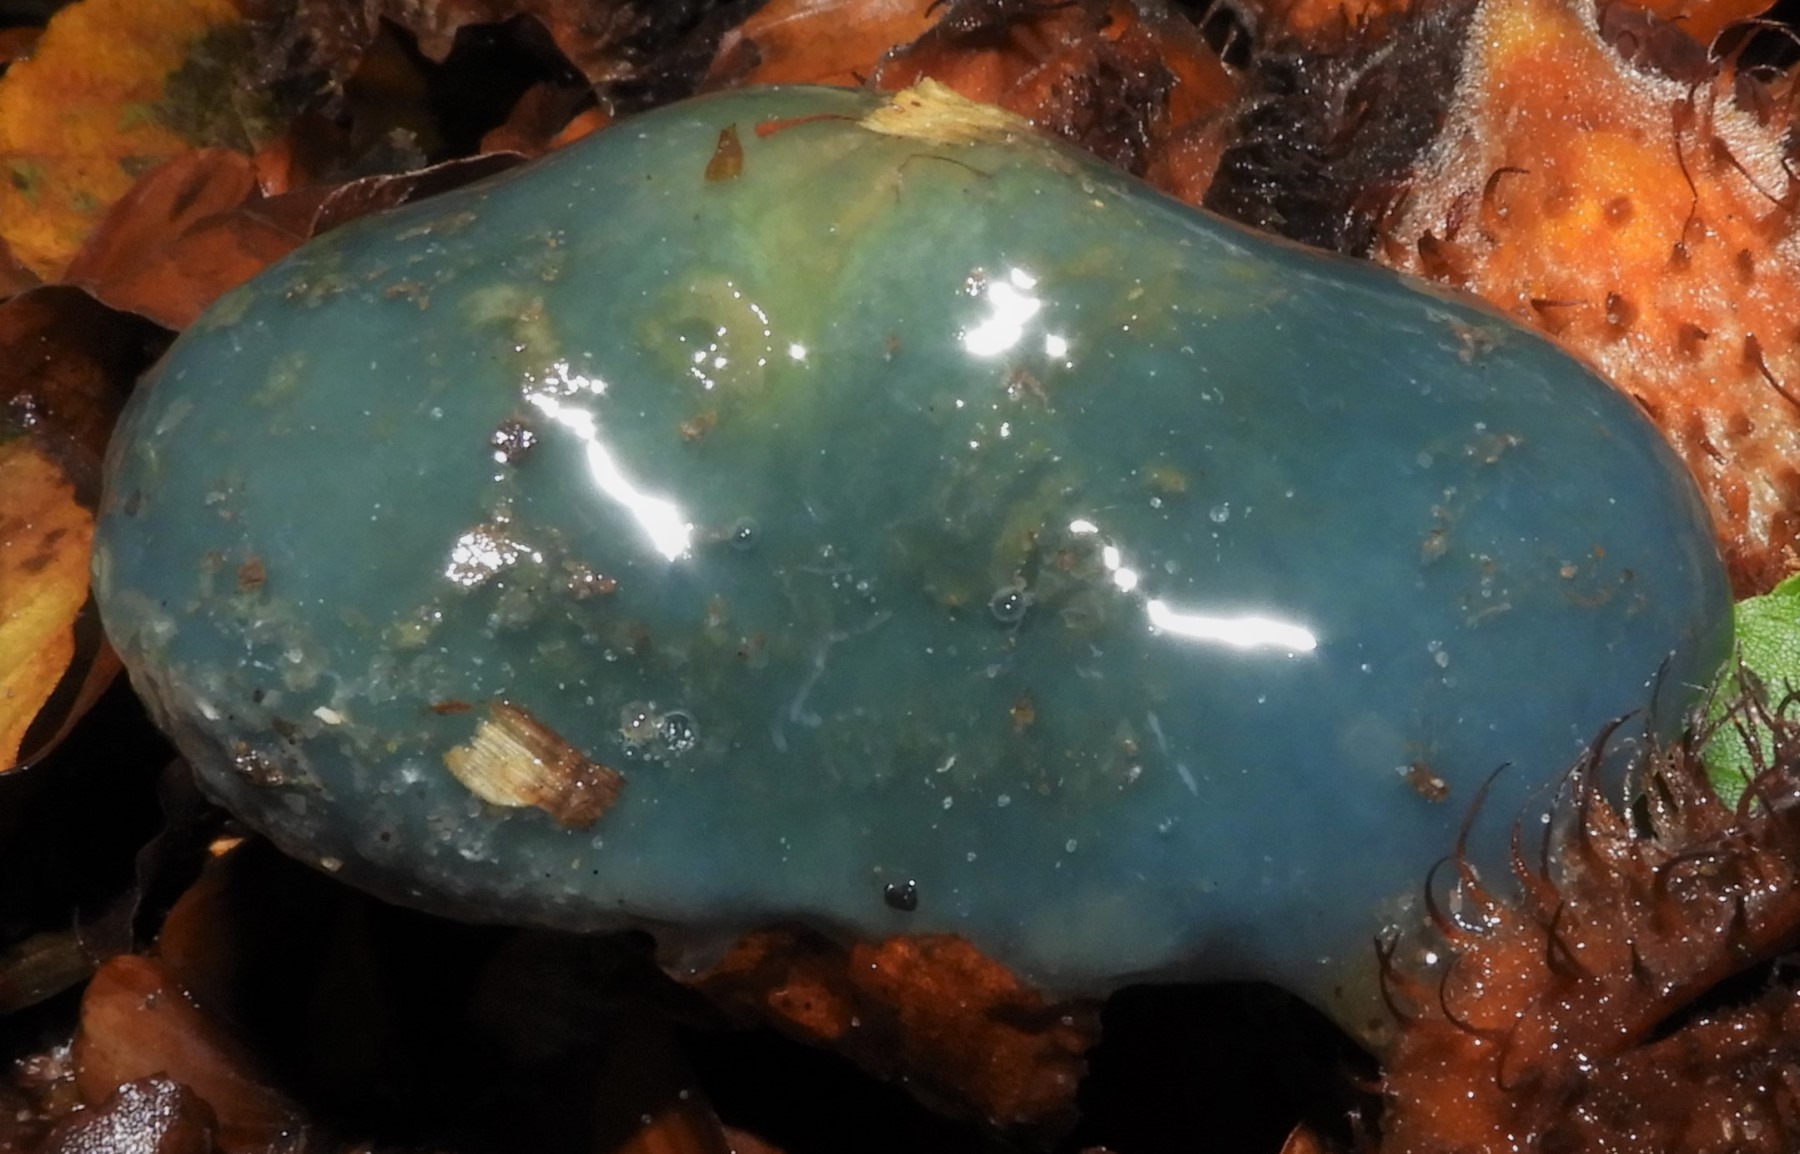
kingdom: Fungi
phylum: Basidiomycota
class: Agaricomycetes
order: Agaricales
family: Strophariaceae
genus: Stropharia
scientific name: Stropharia cyanea
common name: blågrøn bredblad
